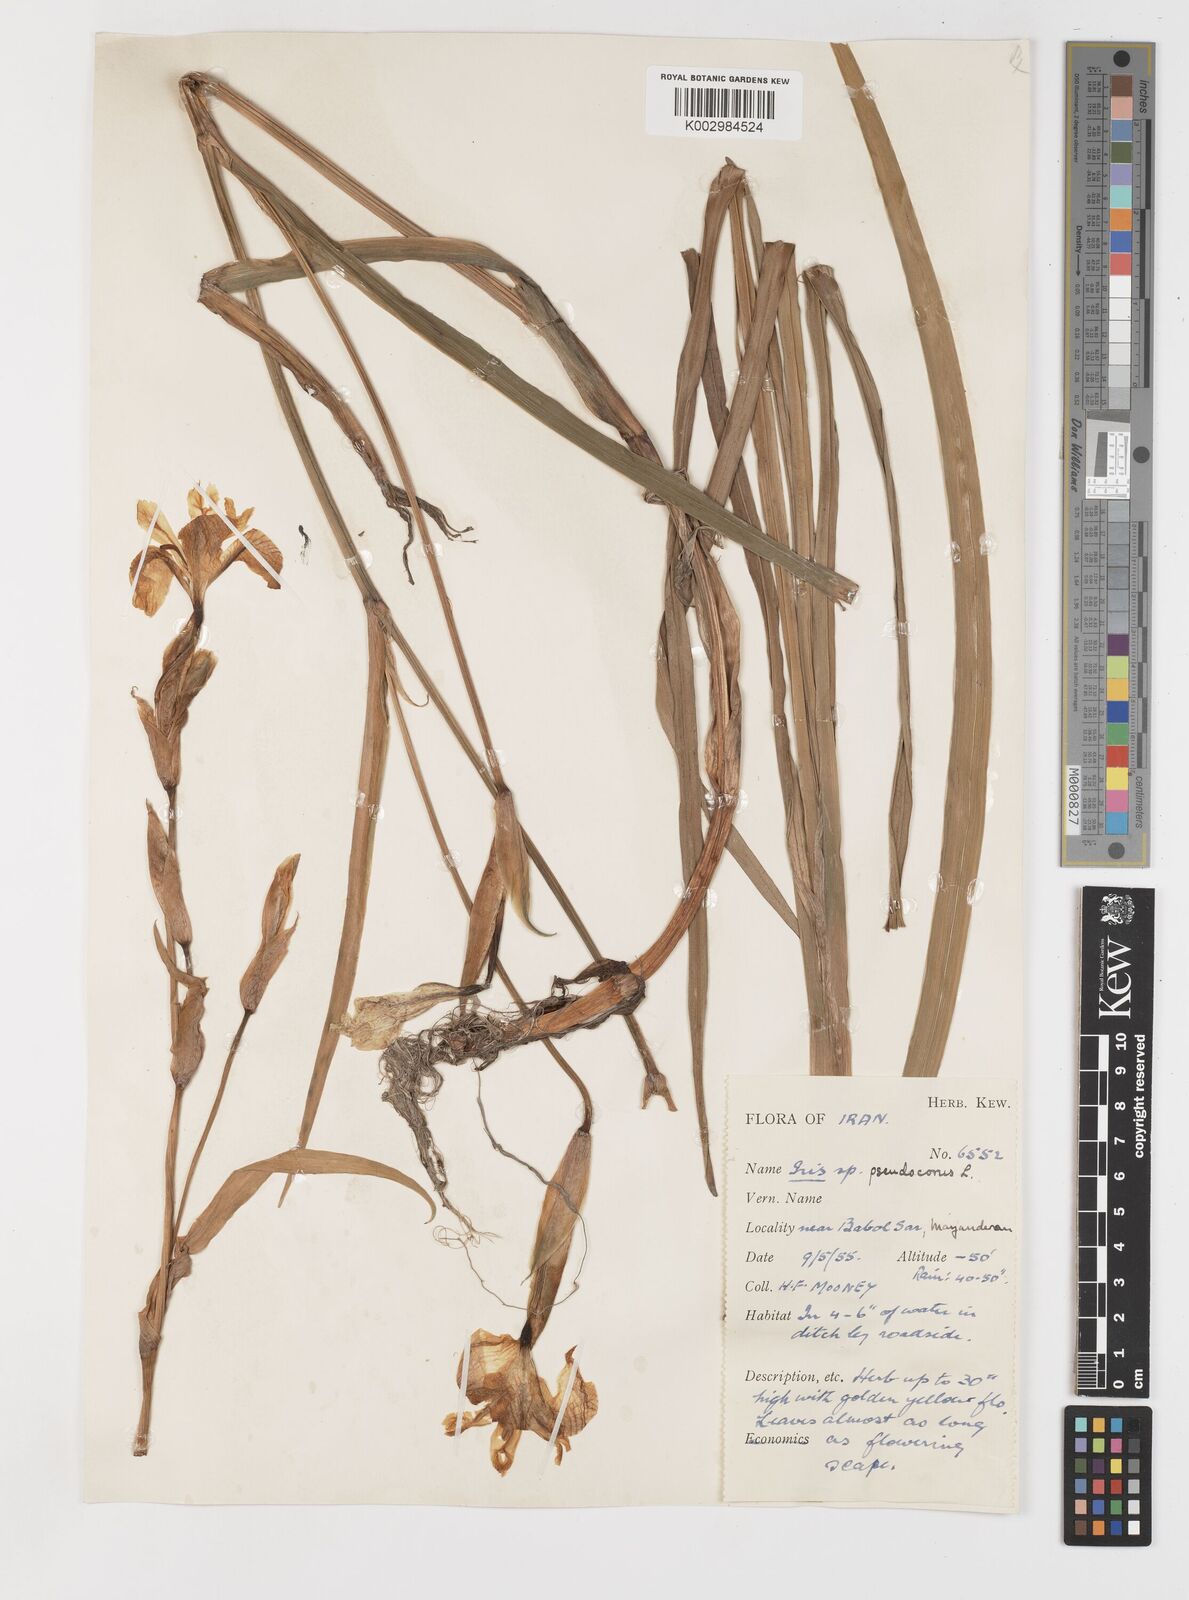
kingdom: Plantae
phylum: Tracheophyta
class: Liliopsida
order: Asparagales
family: Iridaceae
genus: Iris
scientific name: Iris pseudacorus
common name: Yellow flag
